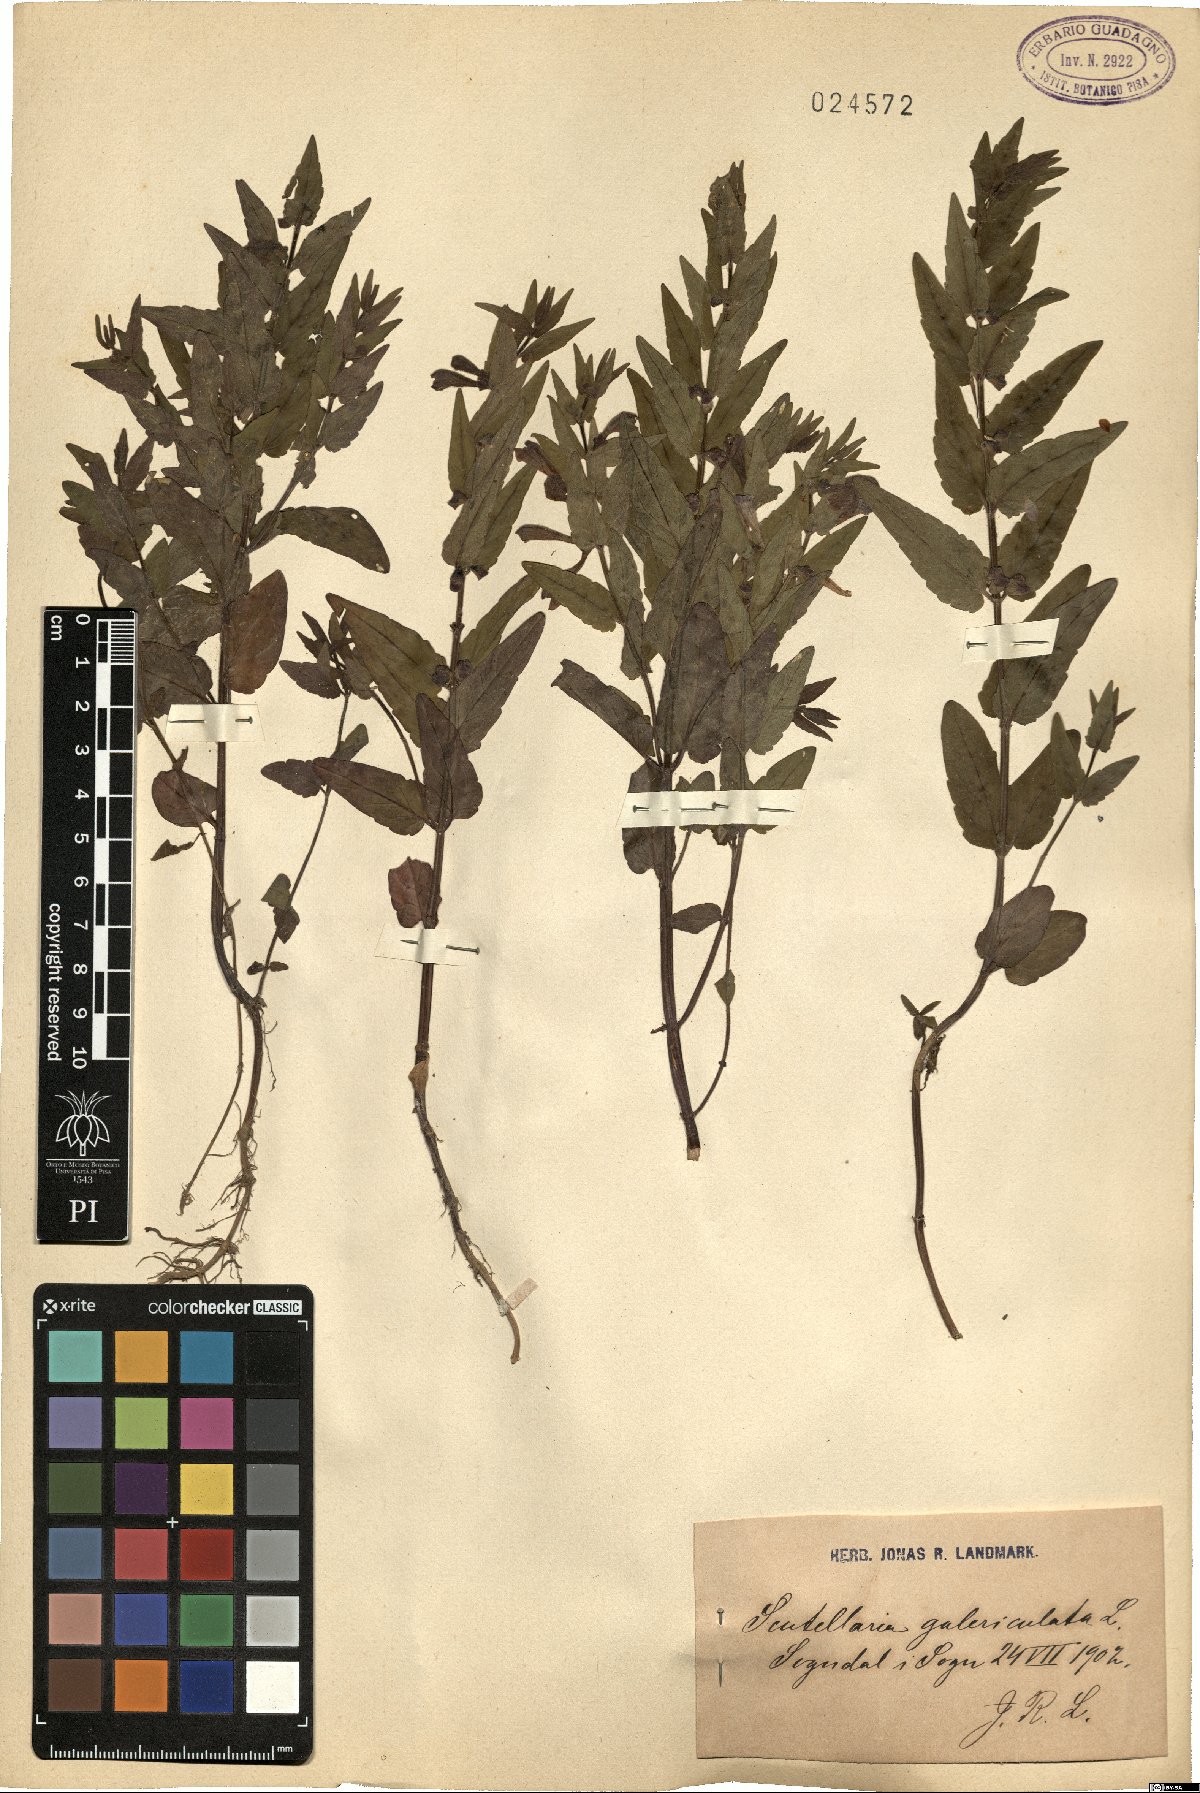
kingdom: Plantae
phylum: Tracheophyta
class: Magnoliopsida
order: Lamiales
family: Lamiaceae
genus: Scutellaria
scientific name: Scutellaria galericulata
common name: Skullcap
